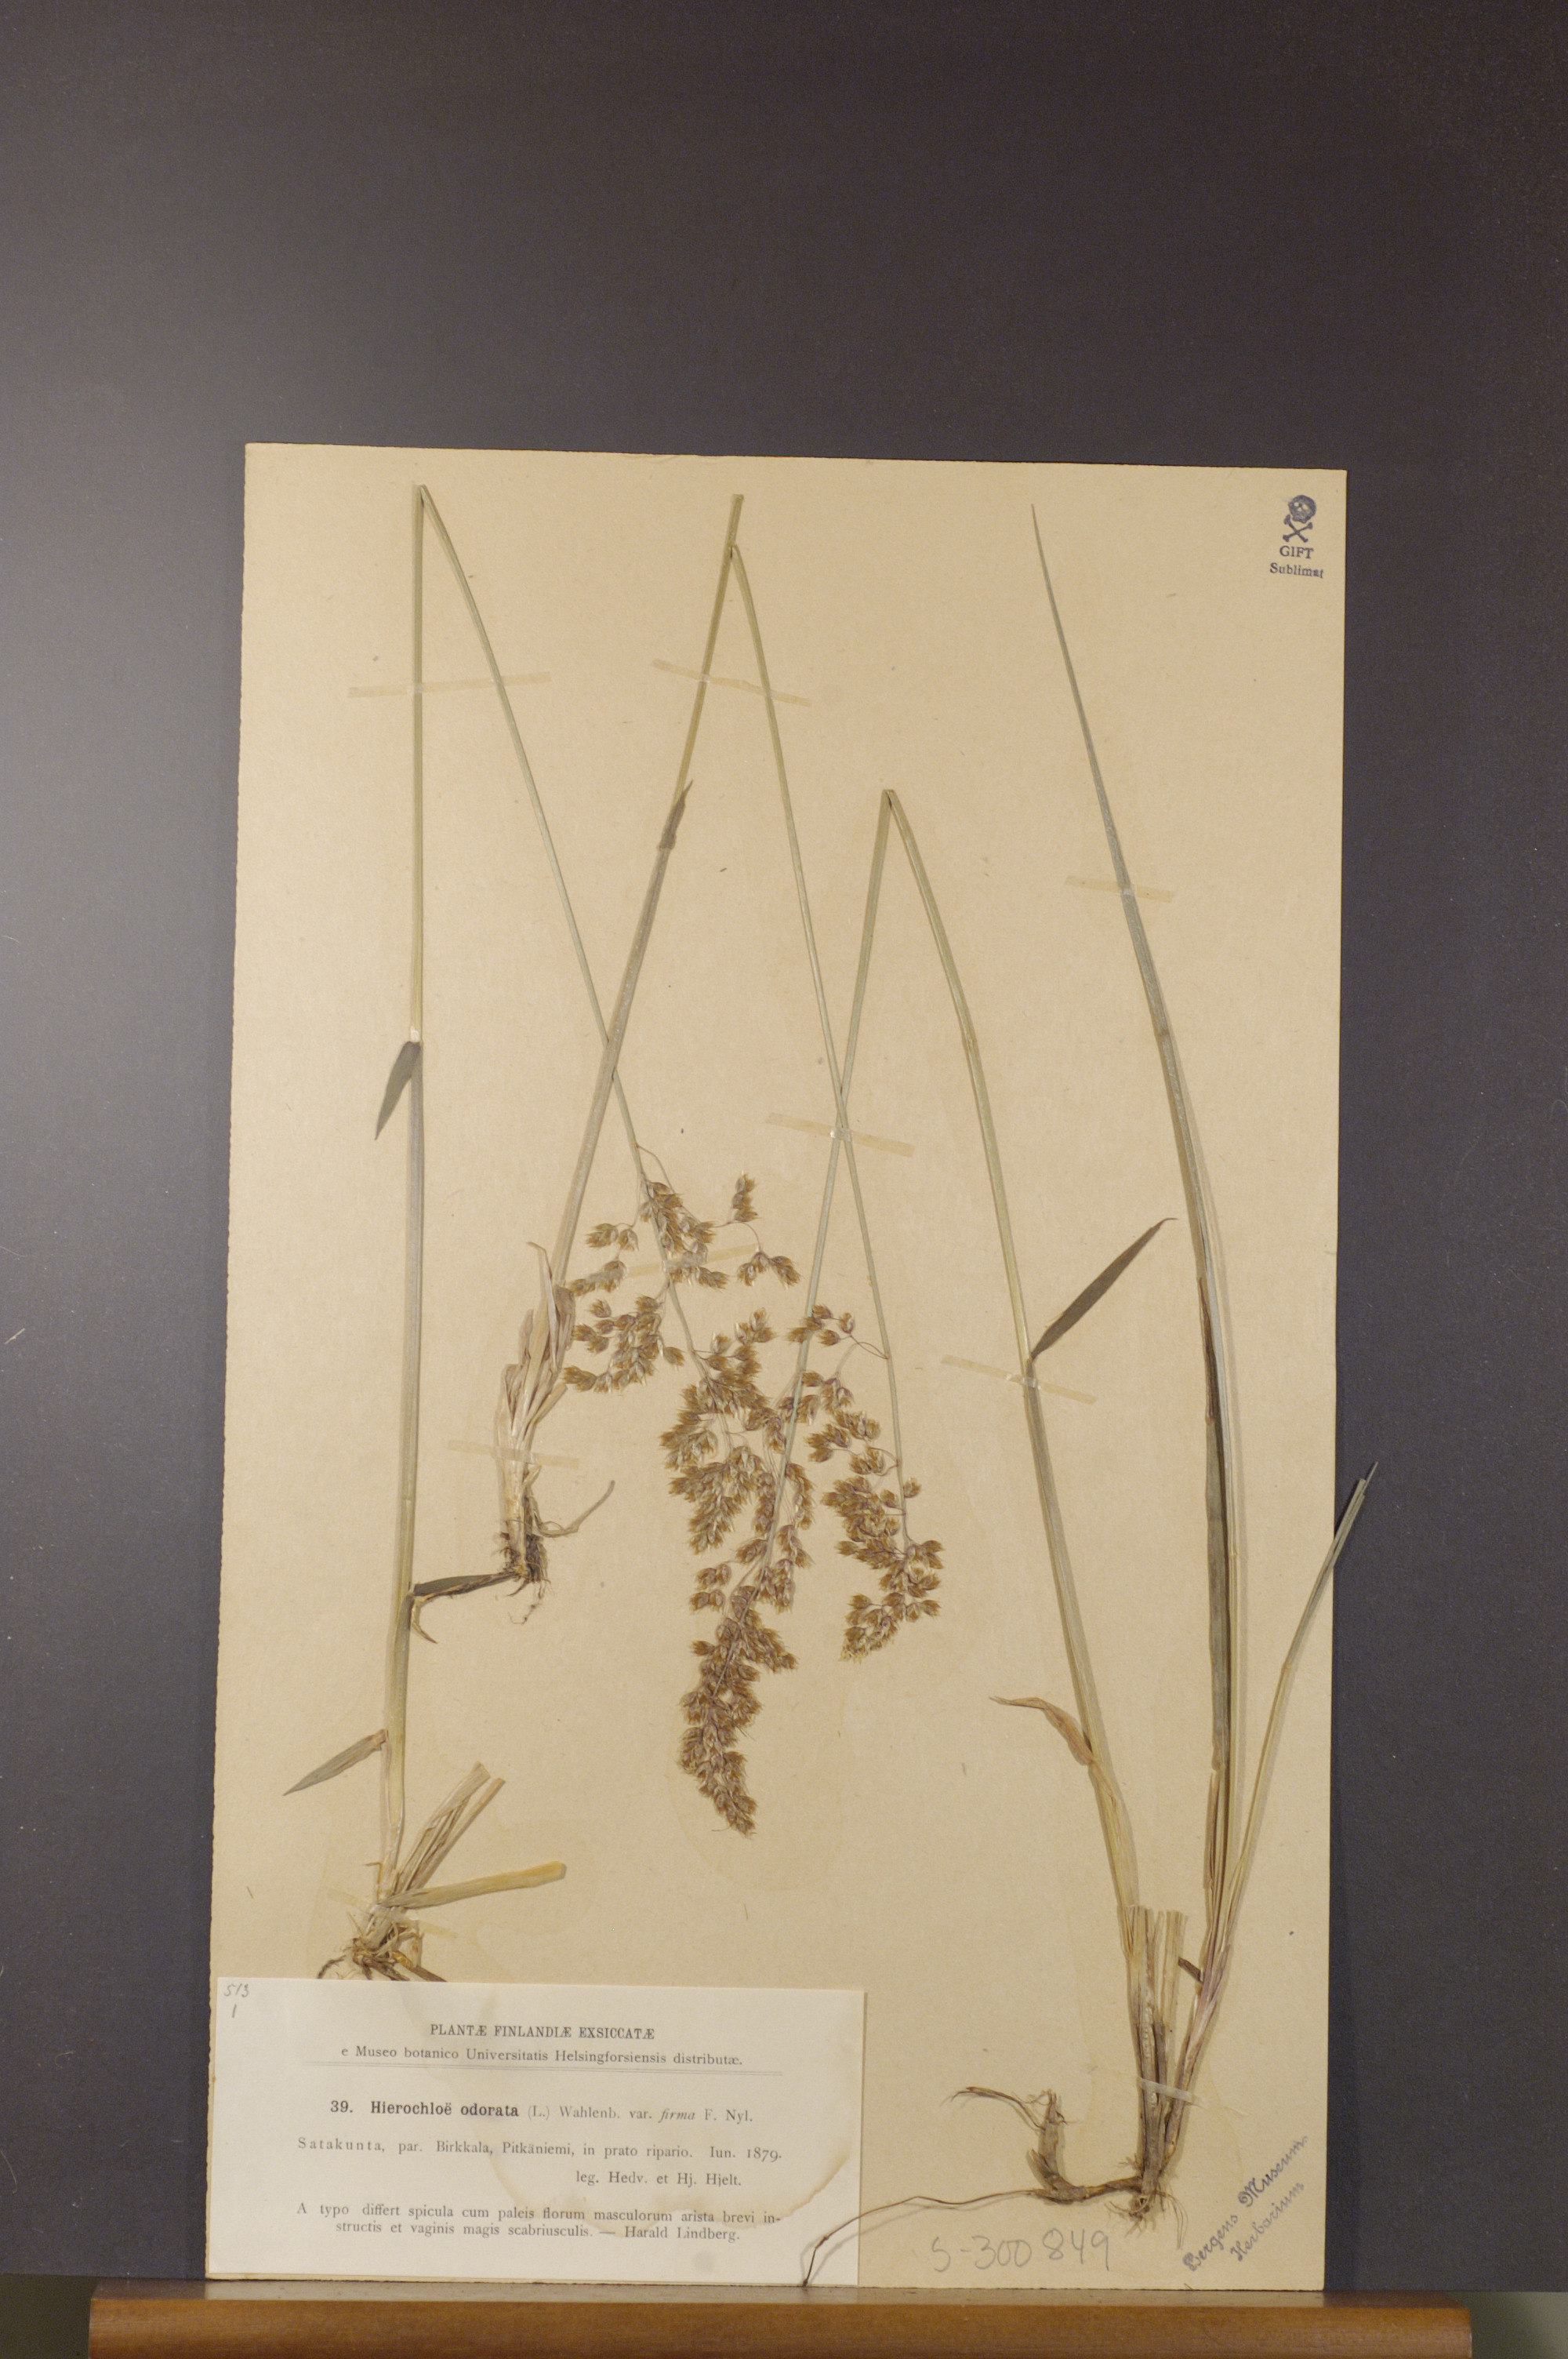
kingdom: Plantae
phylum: Tracheophyta
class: Liliopsida
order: Poales
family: Poaceae
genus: Anthoxanthum
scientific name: Anthoxanthum nitens
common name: Holy grass
